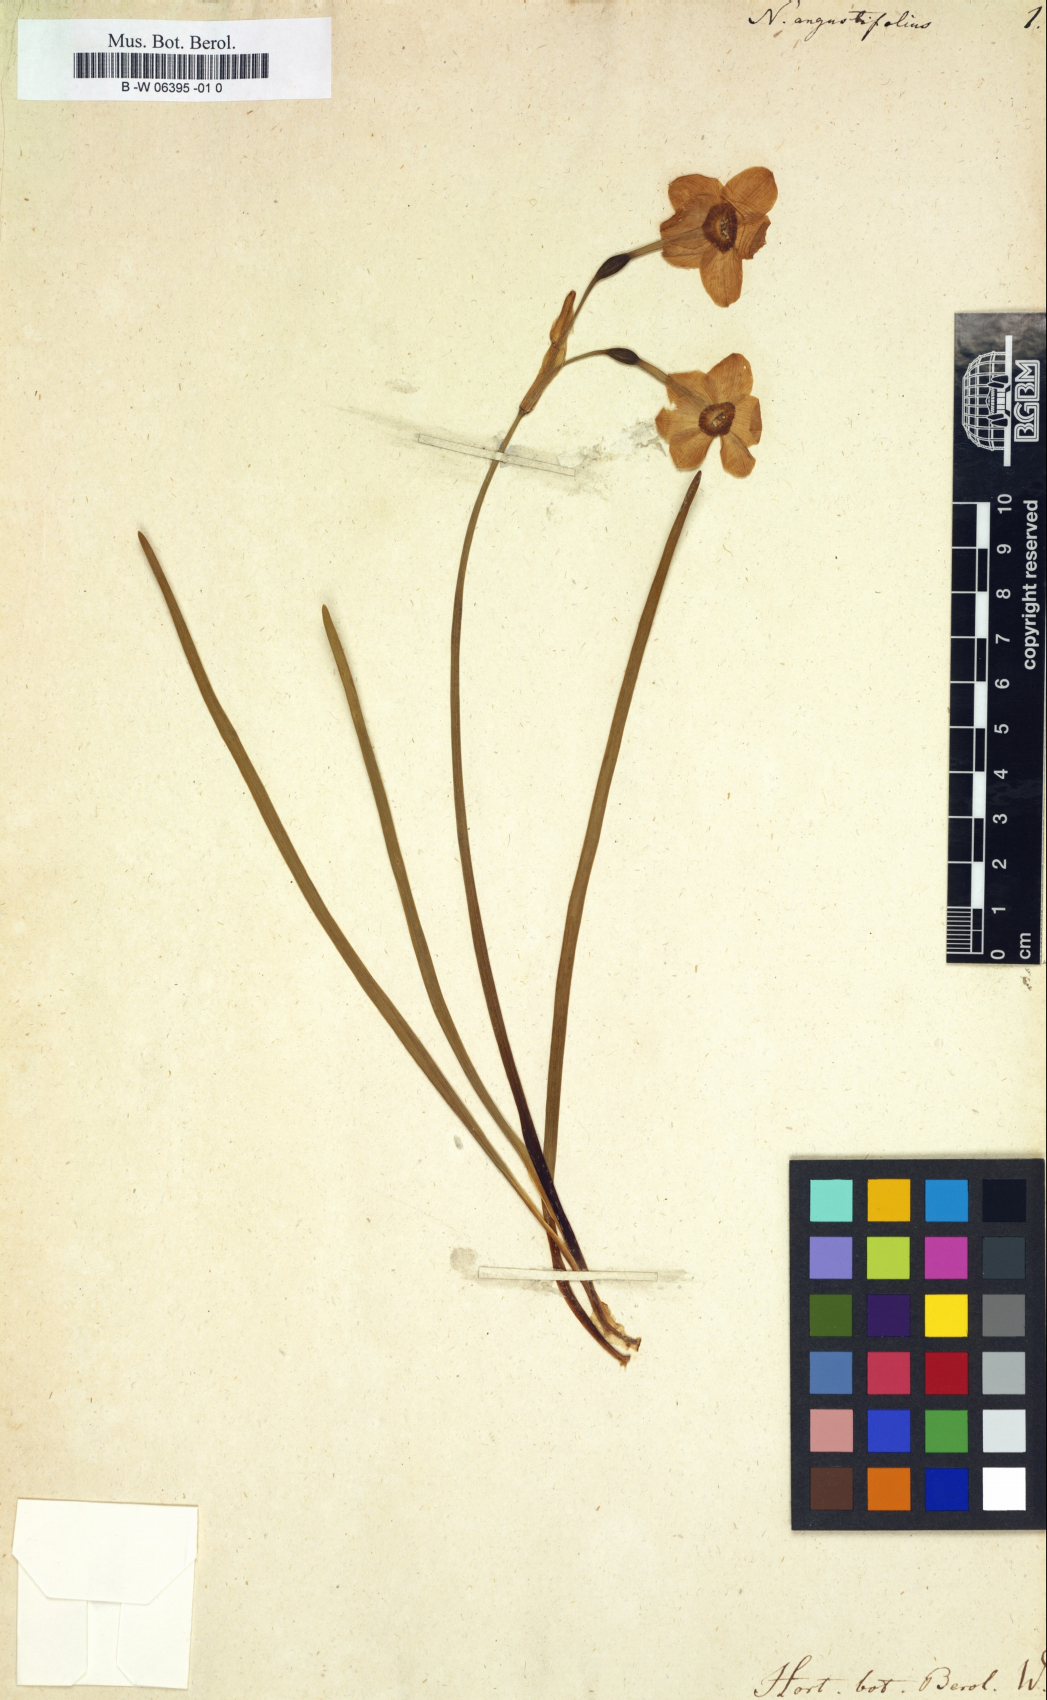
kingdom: Plantae
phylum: Tracheophyta
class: Liliopsida
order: Asparagales
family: Amaryllidaceae
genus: Narcissus
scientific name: Narcissus angustifolius
